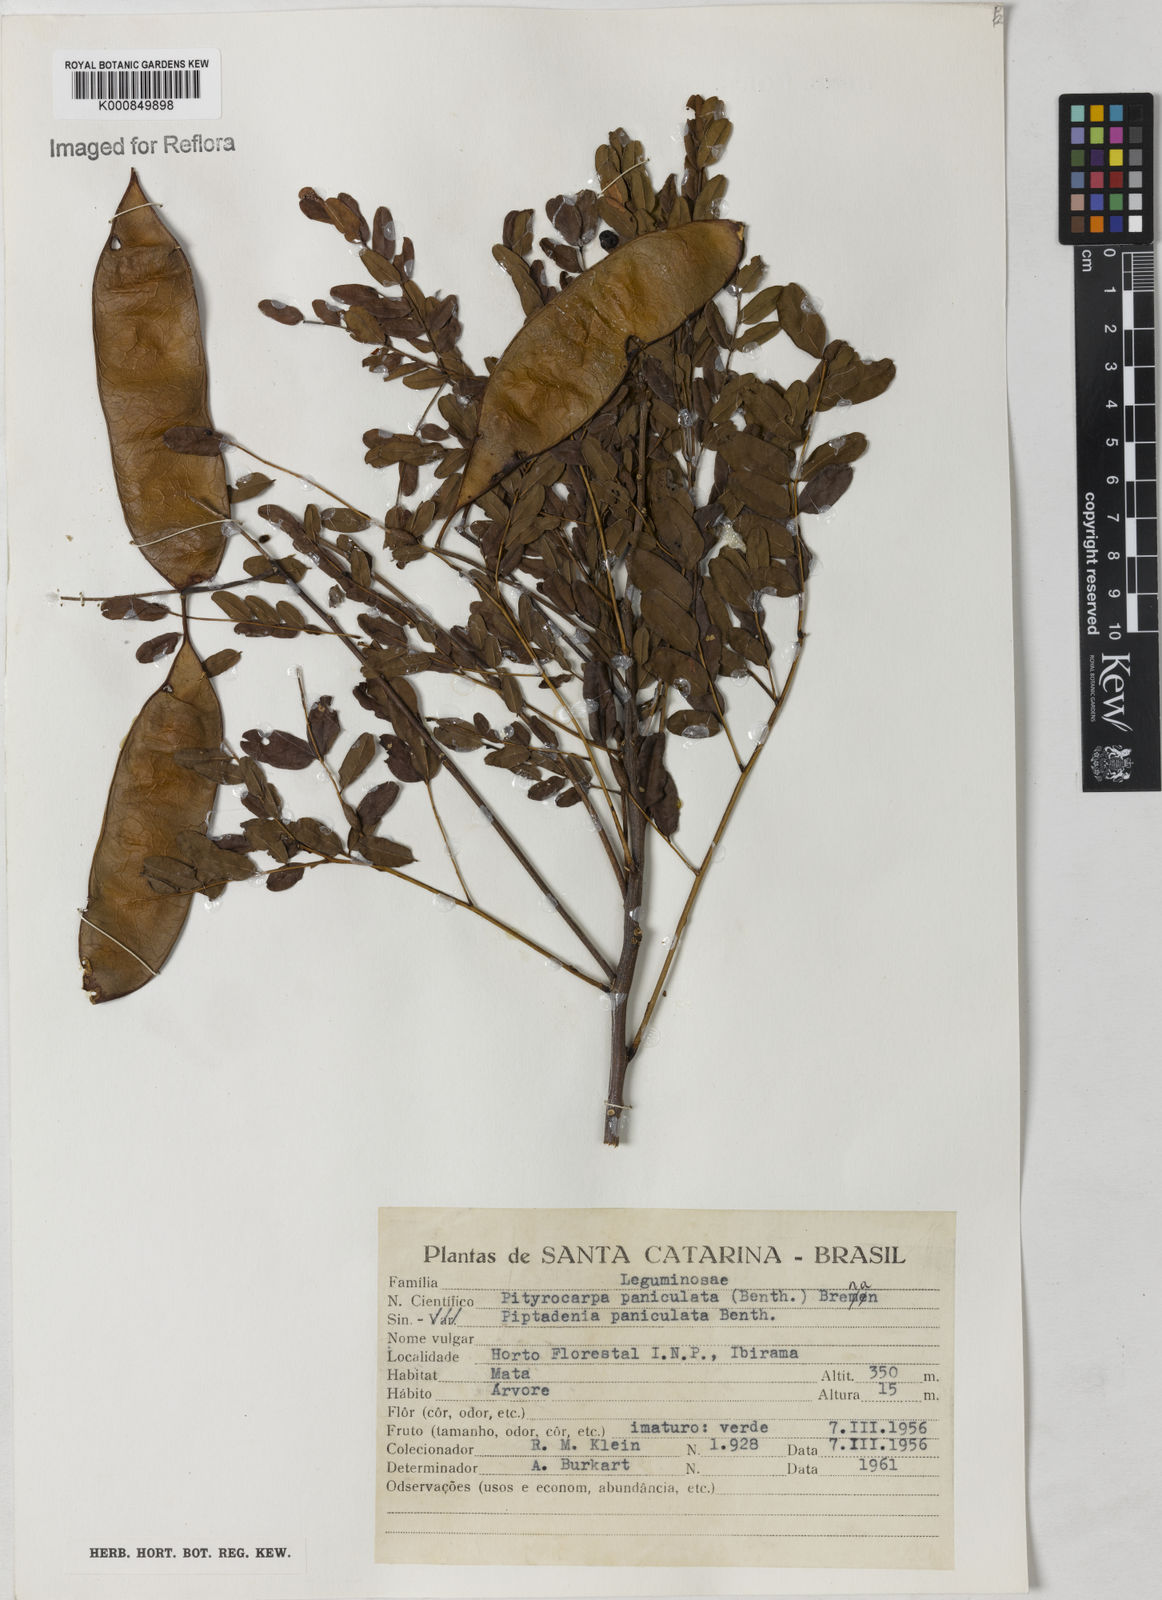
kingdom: Plantae
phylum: Tracheophyta
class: Magnoliopsida
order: Fabales
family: Fabaceae
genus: Piptadenia
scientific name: Piptadenia paniculata
